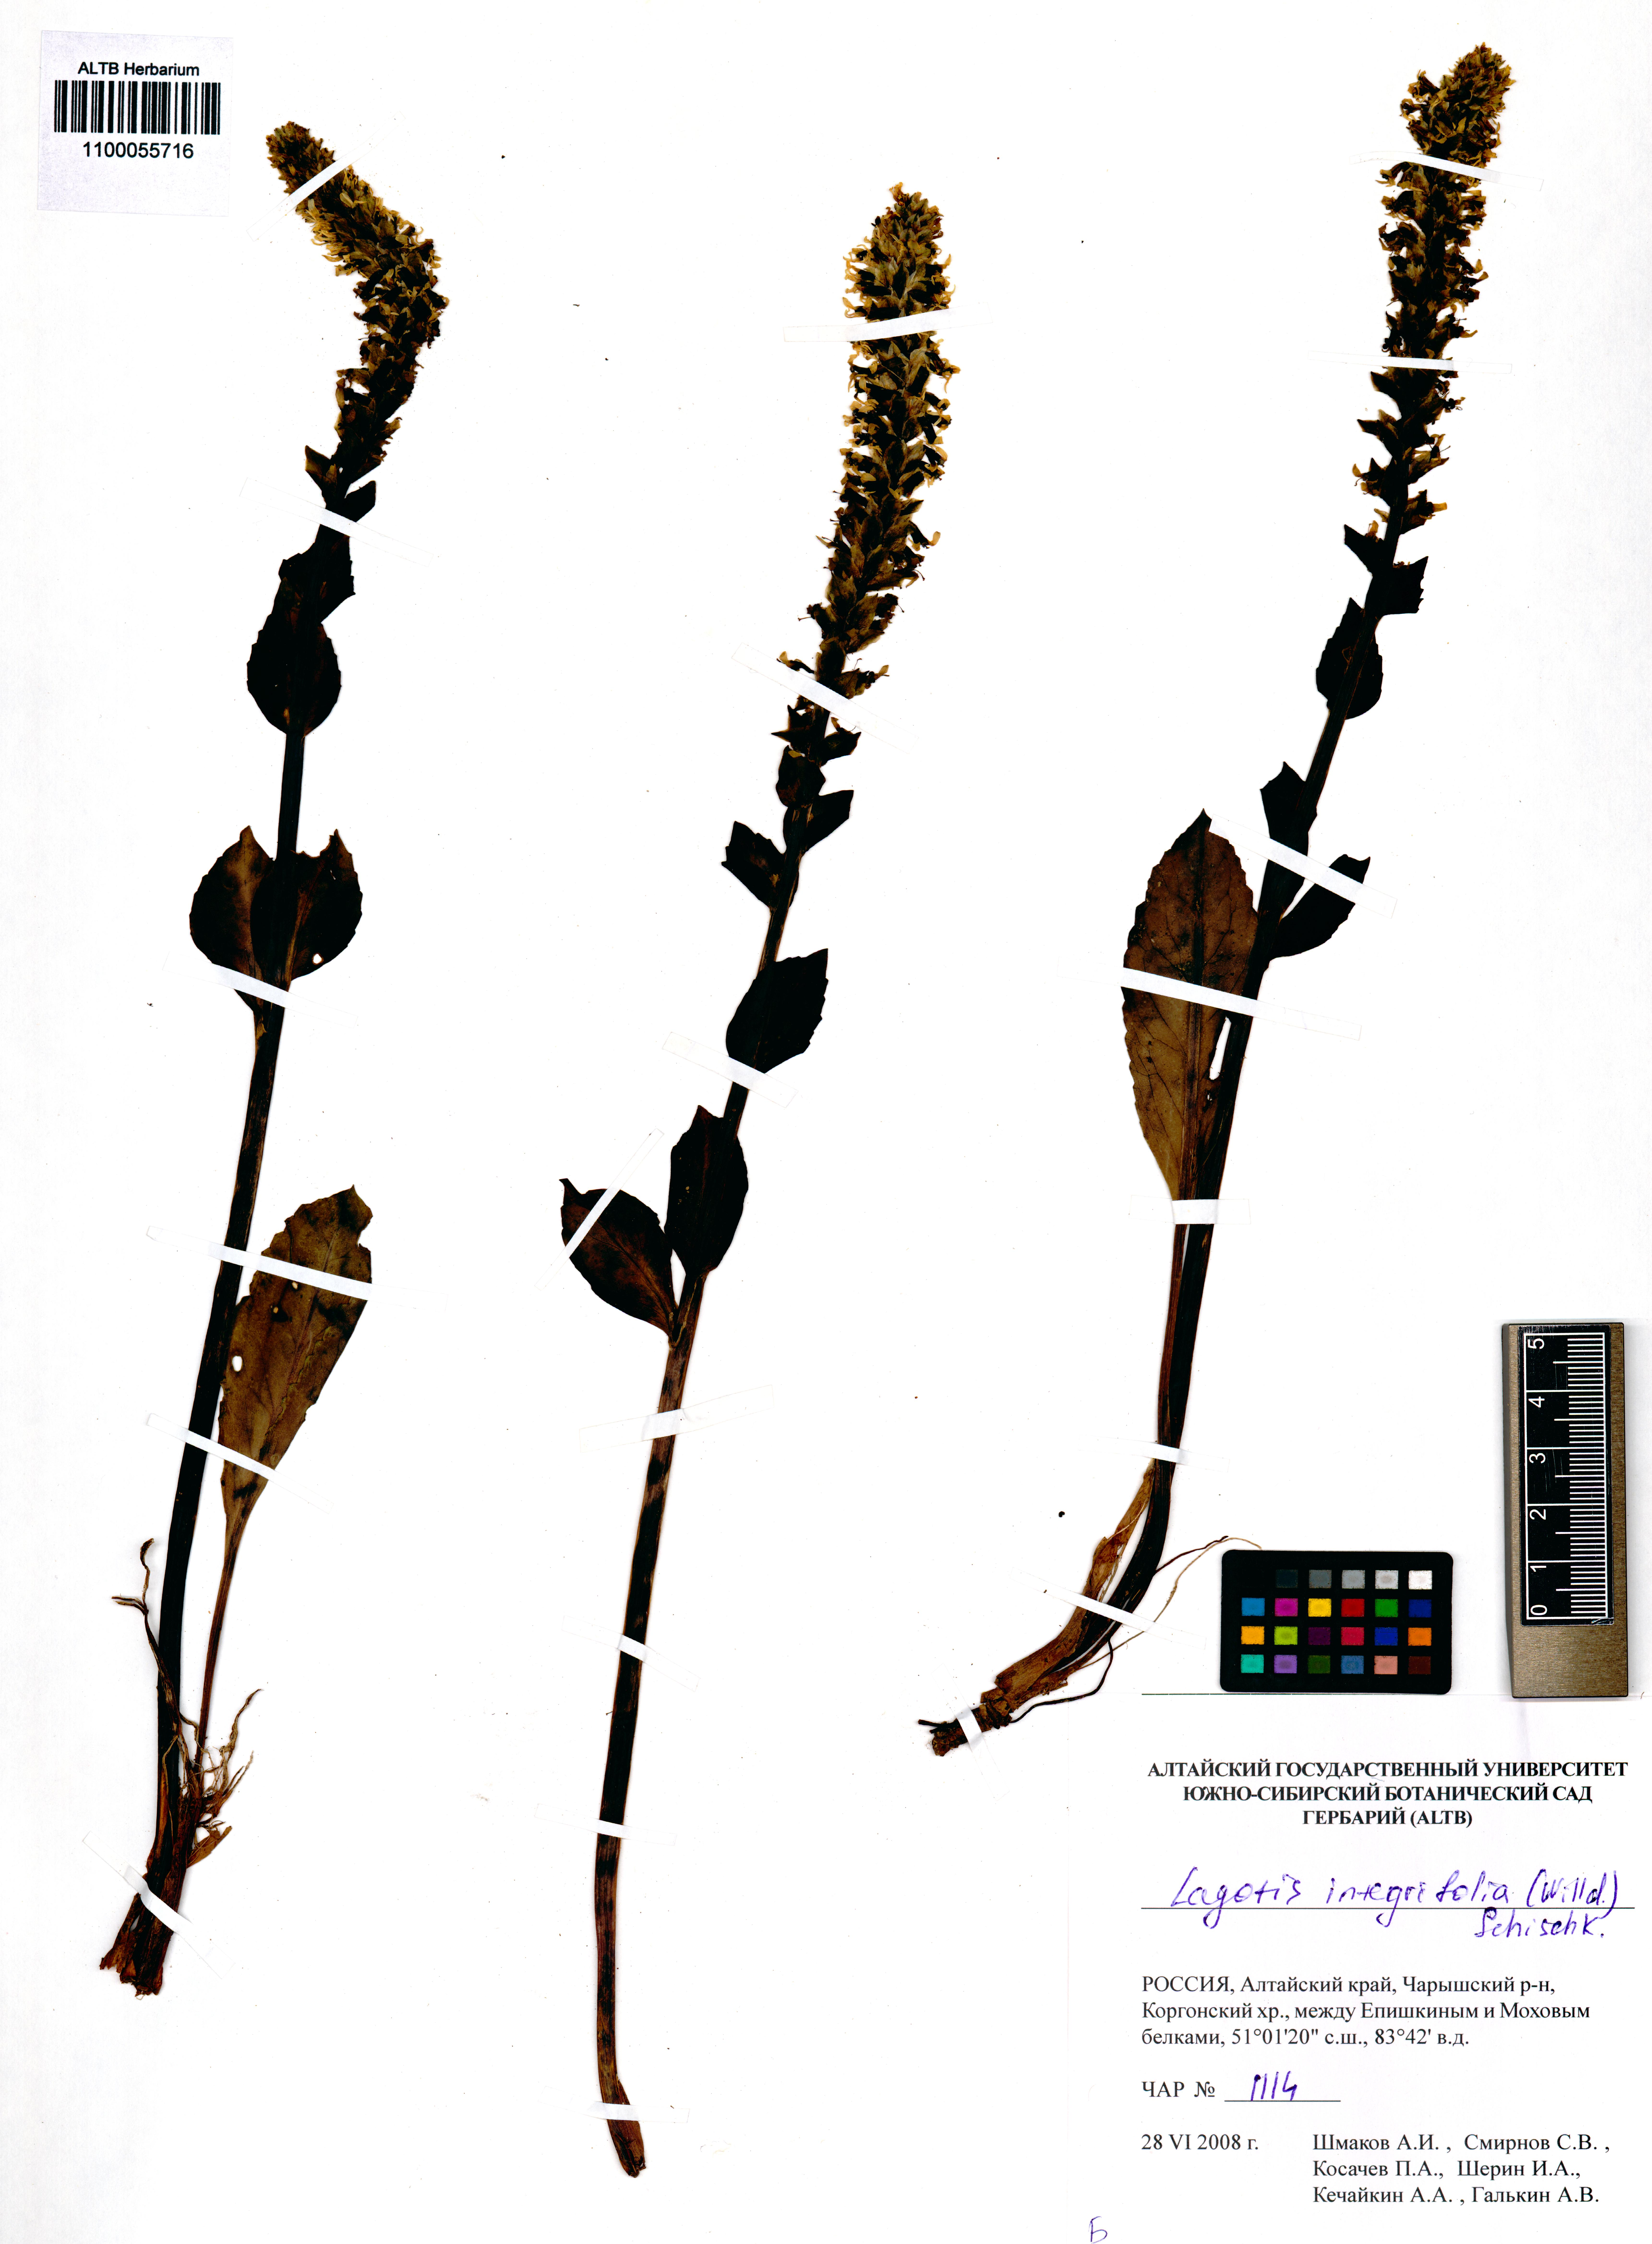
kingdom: Plantae
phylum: Tracheophyta
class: Magnoliopsida
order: Lamiales
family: Plantaginaceae
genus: Lagotis
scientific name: Lagotis integrifolia
